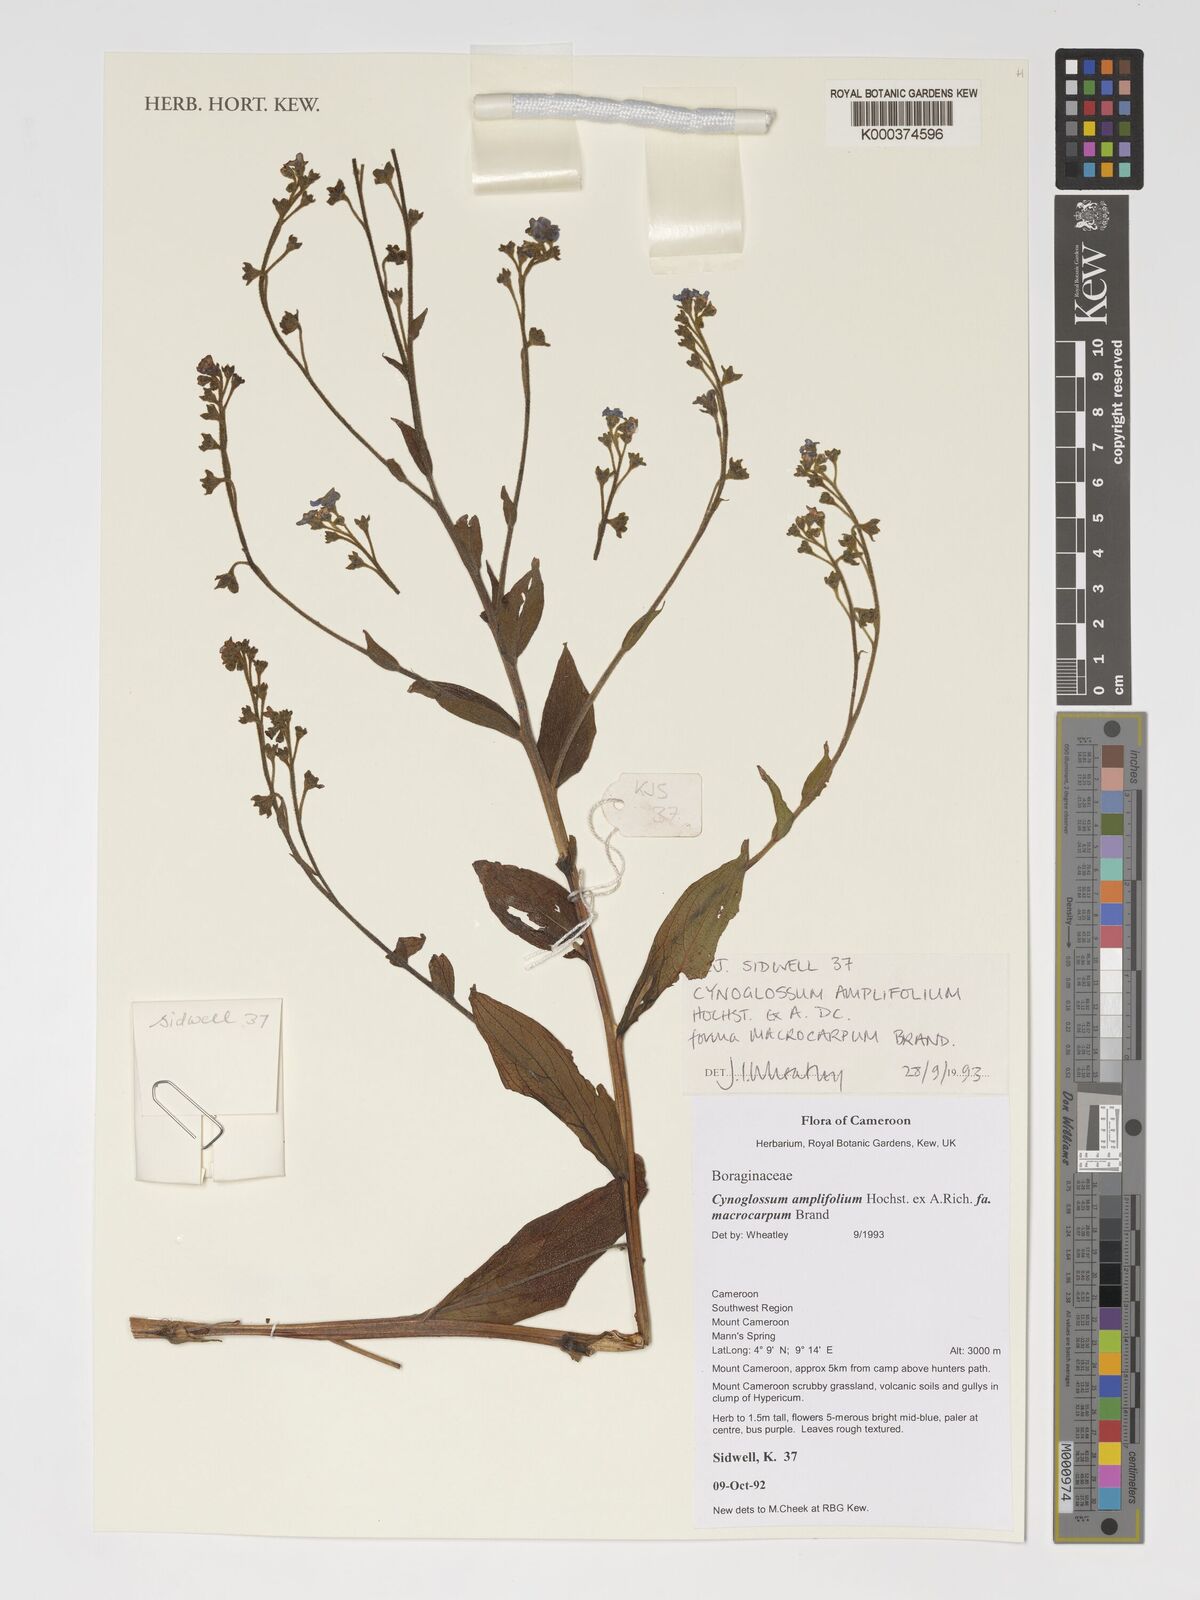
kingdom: Plantae
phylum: Tracheophyta
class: Magnoliopsida
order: Boraginales
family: Boraginaceae
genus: Cynoglossum
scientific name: Cynoglossum amplifolium
